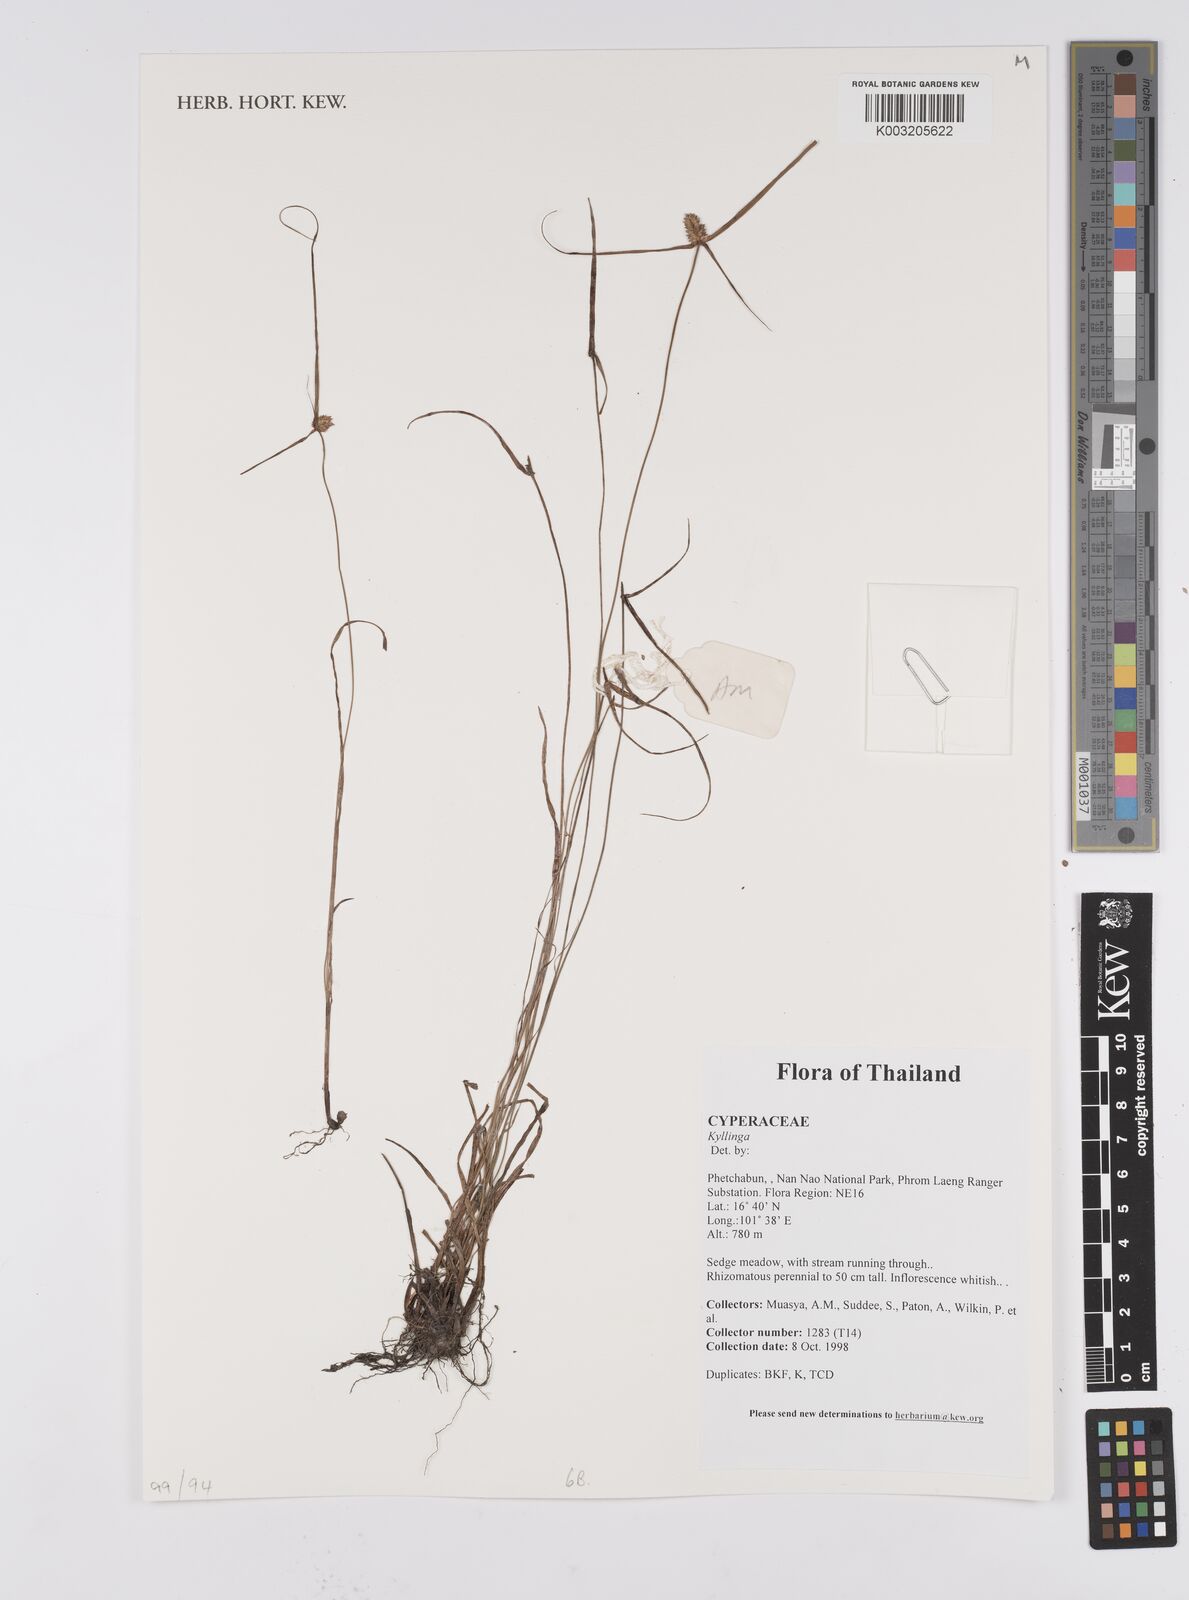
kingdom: Plantae
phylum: Tracheophyta
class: Liliopsida
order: Poales
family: Cyperaceae
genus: Cyperus
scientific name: Cyperus
